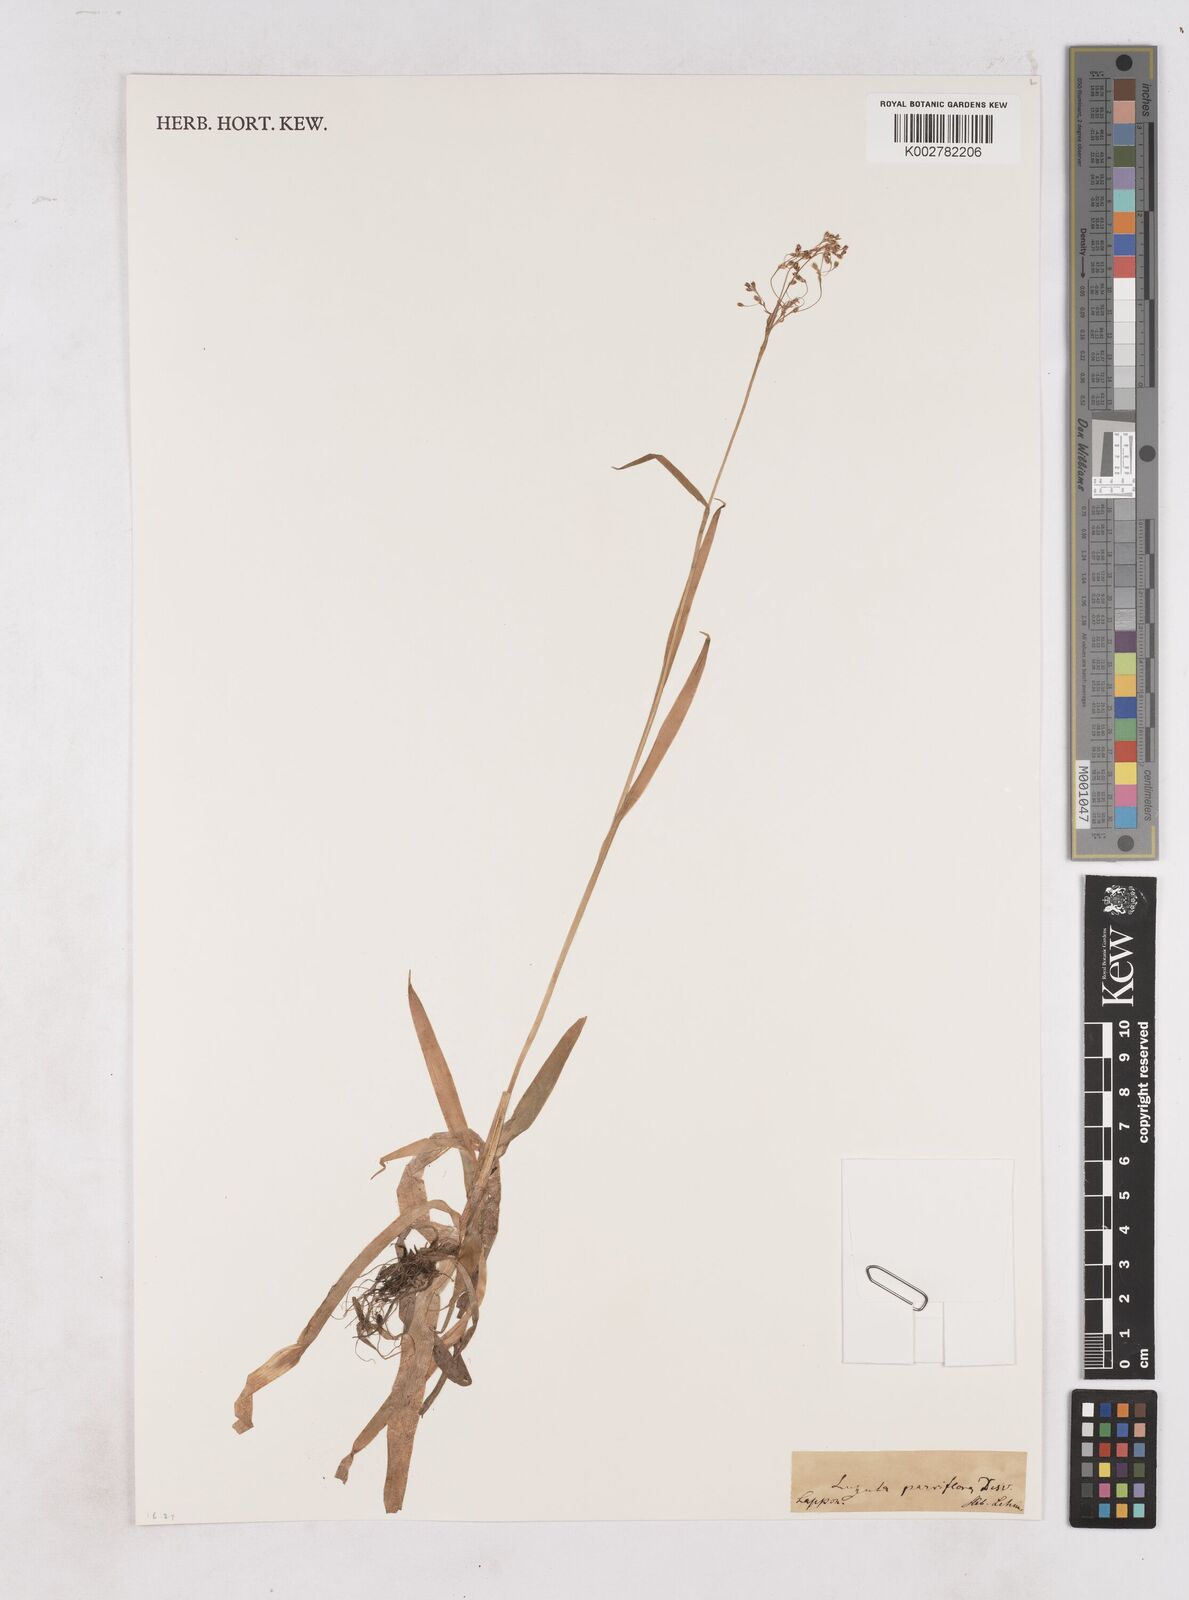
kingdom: Plantae
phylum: Tracheophyta
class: Liliopsida
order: Poales
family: Juncaceae
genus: Luzula
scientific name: Luzula parviflora
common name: Millet woodrush
